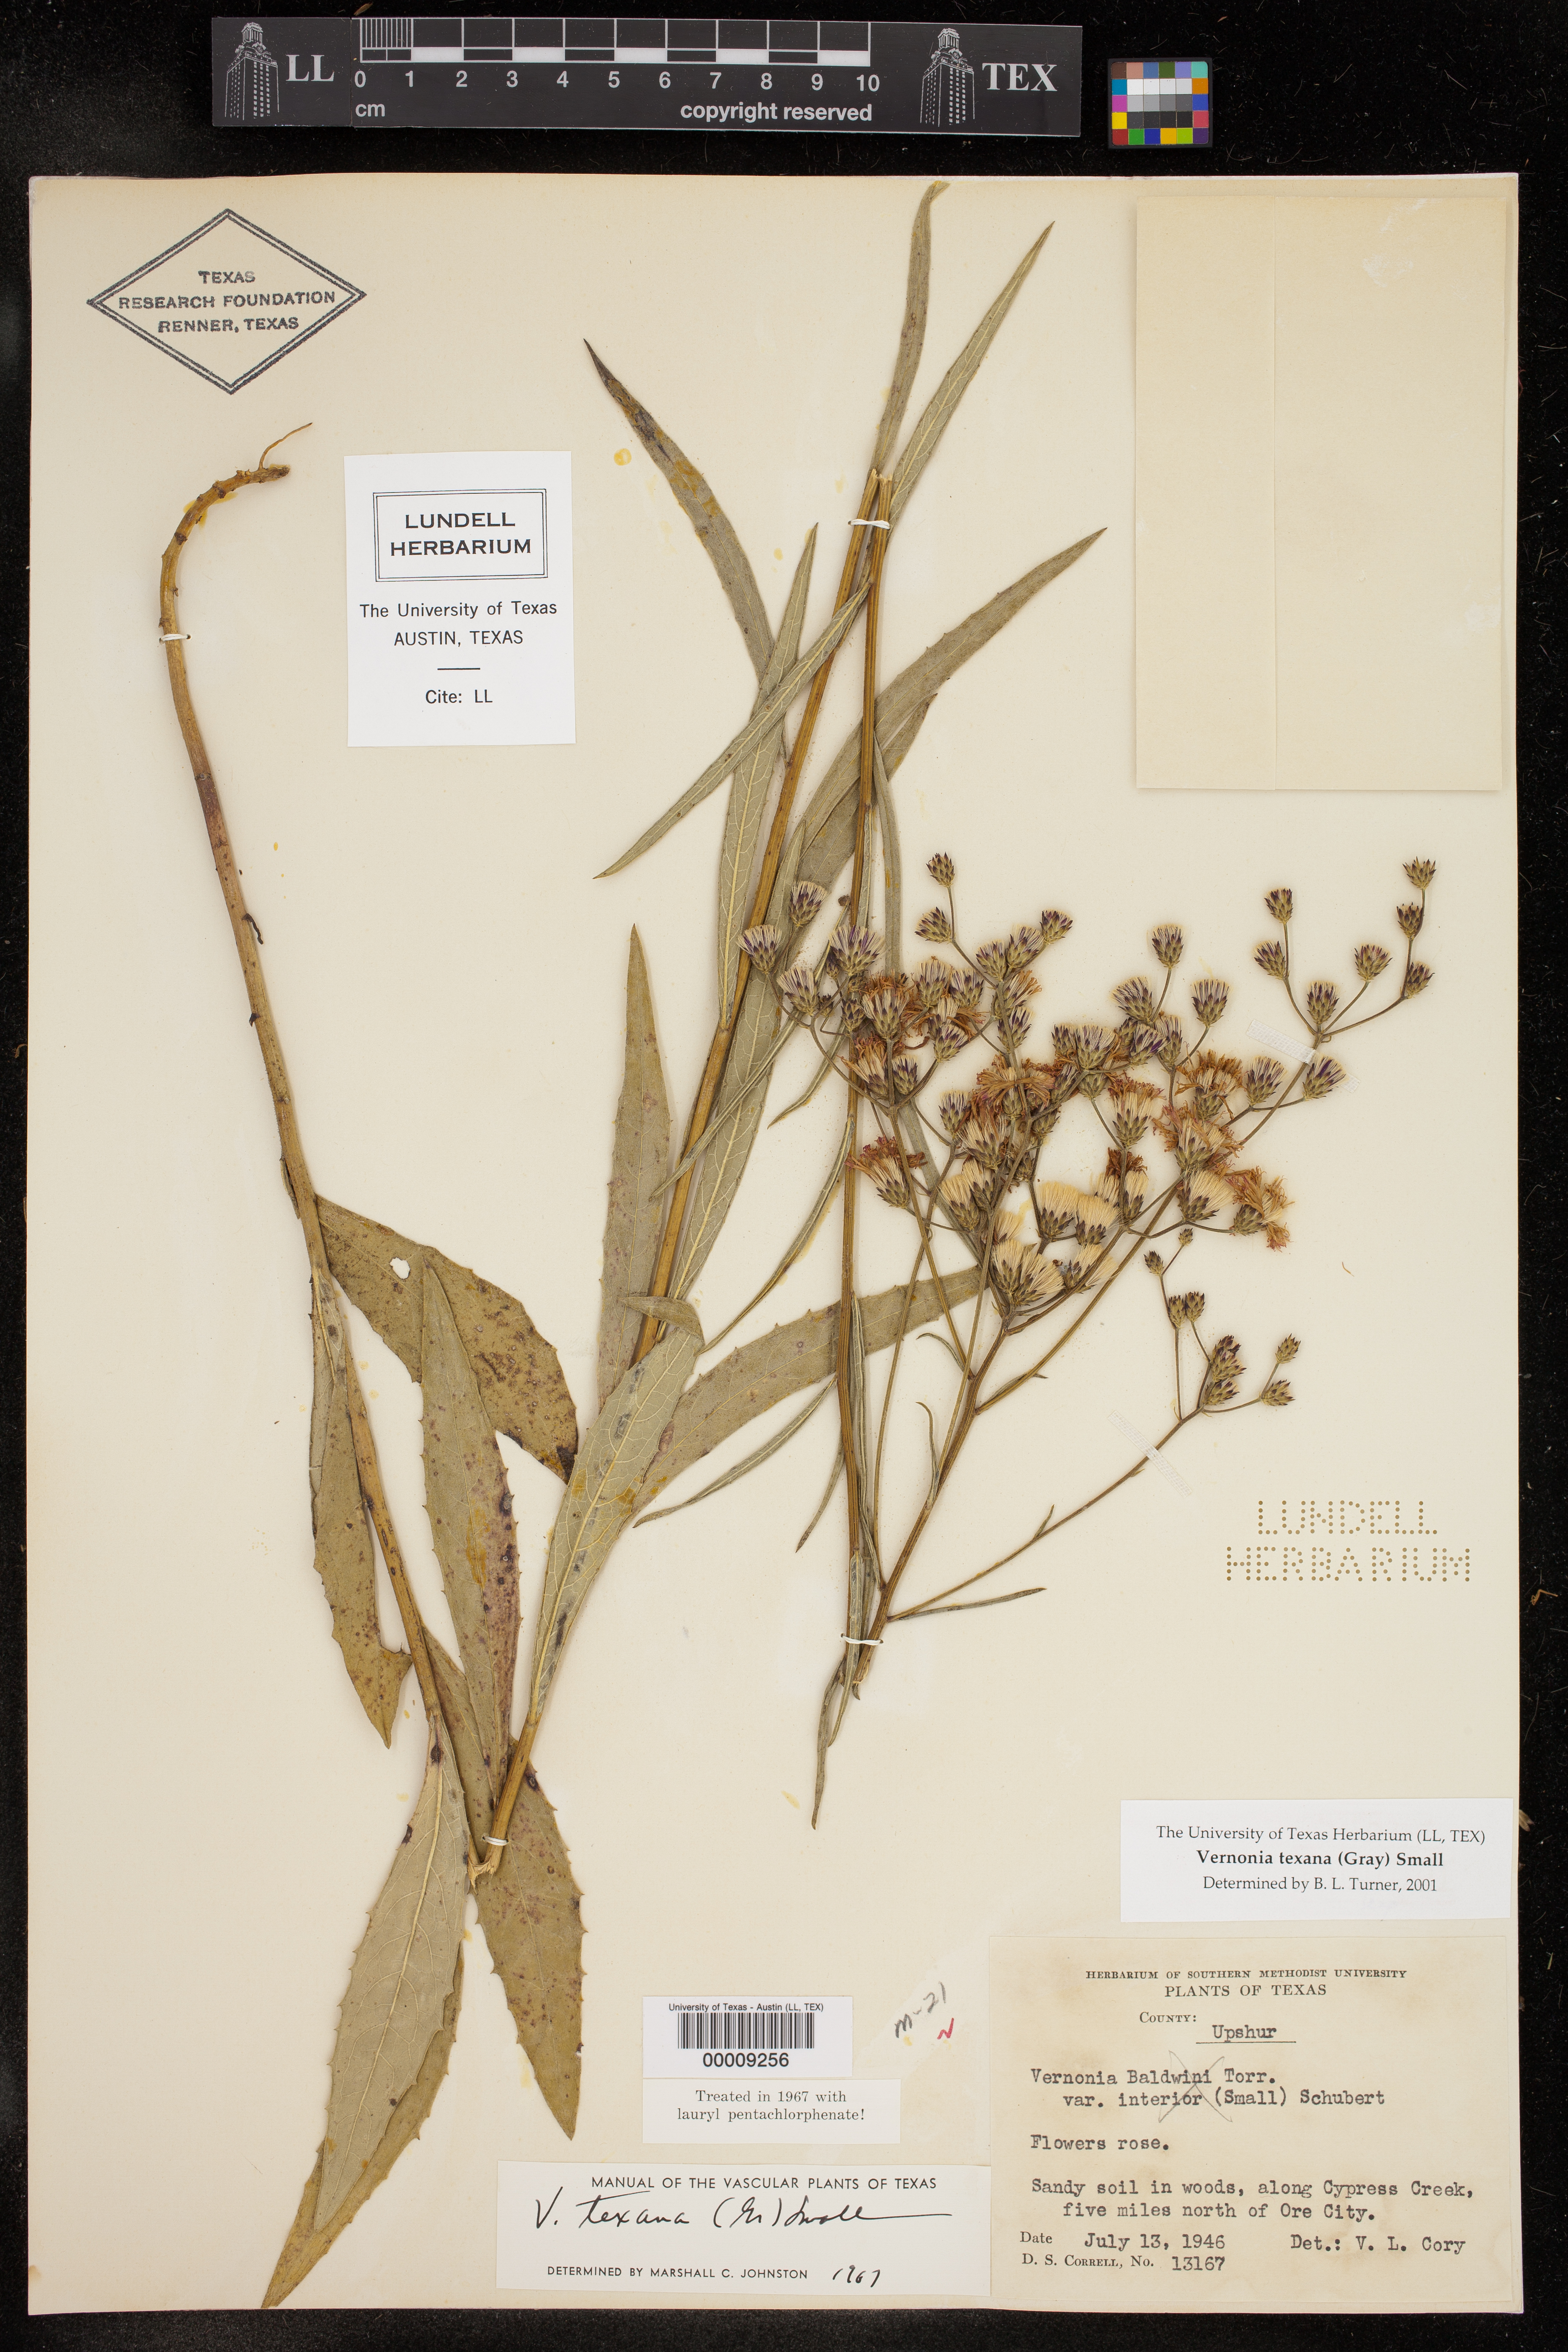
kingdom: Plantae
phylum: Tracheophyta
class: Magnoliopsida
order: Asterales
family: Asteraceae
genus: Vernonia
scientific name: Vernonia texana
